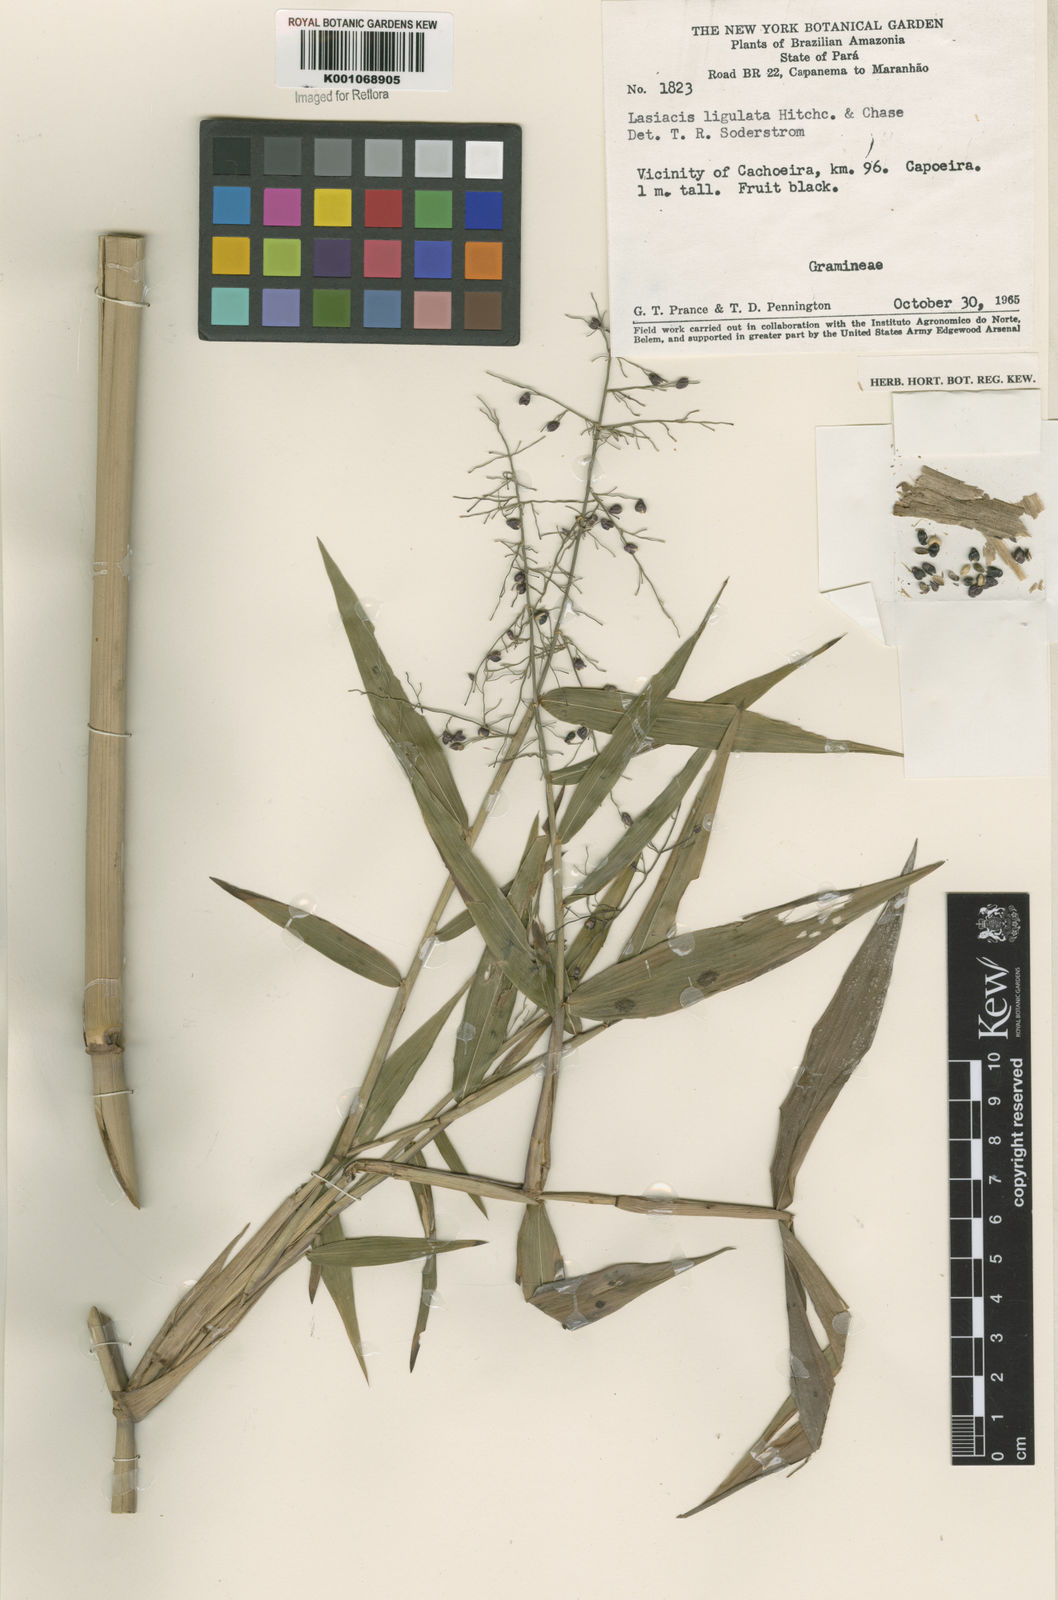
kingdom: Plantae
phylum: Tracheophyta
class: Liliopsida
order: Poales
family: Poaceae
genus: Lasiacis
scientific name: Lasiacis ligulata
